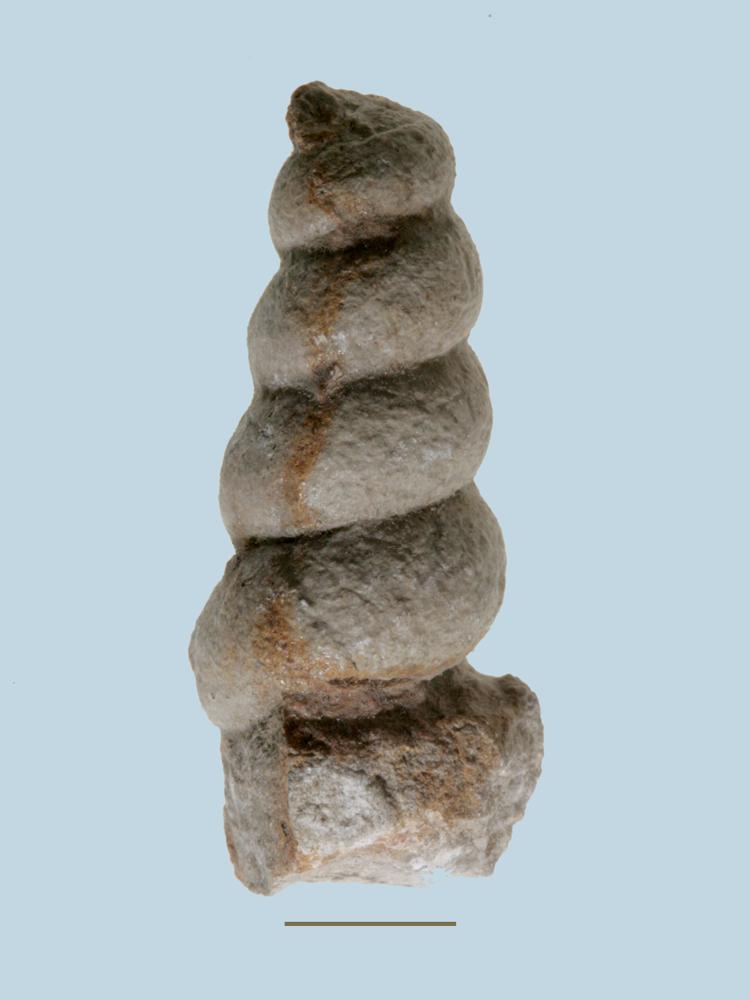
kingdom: Animalia
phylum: Mollusca
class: Gastropoda
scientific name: Gastropoda
